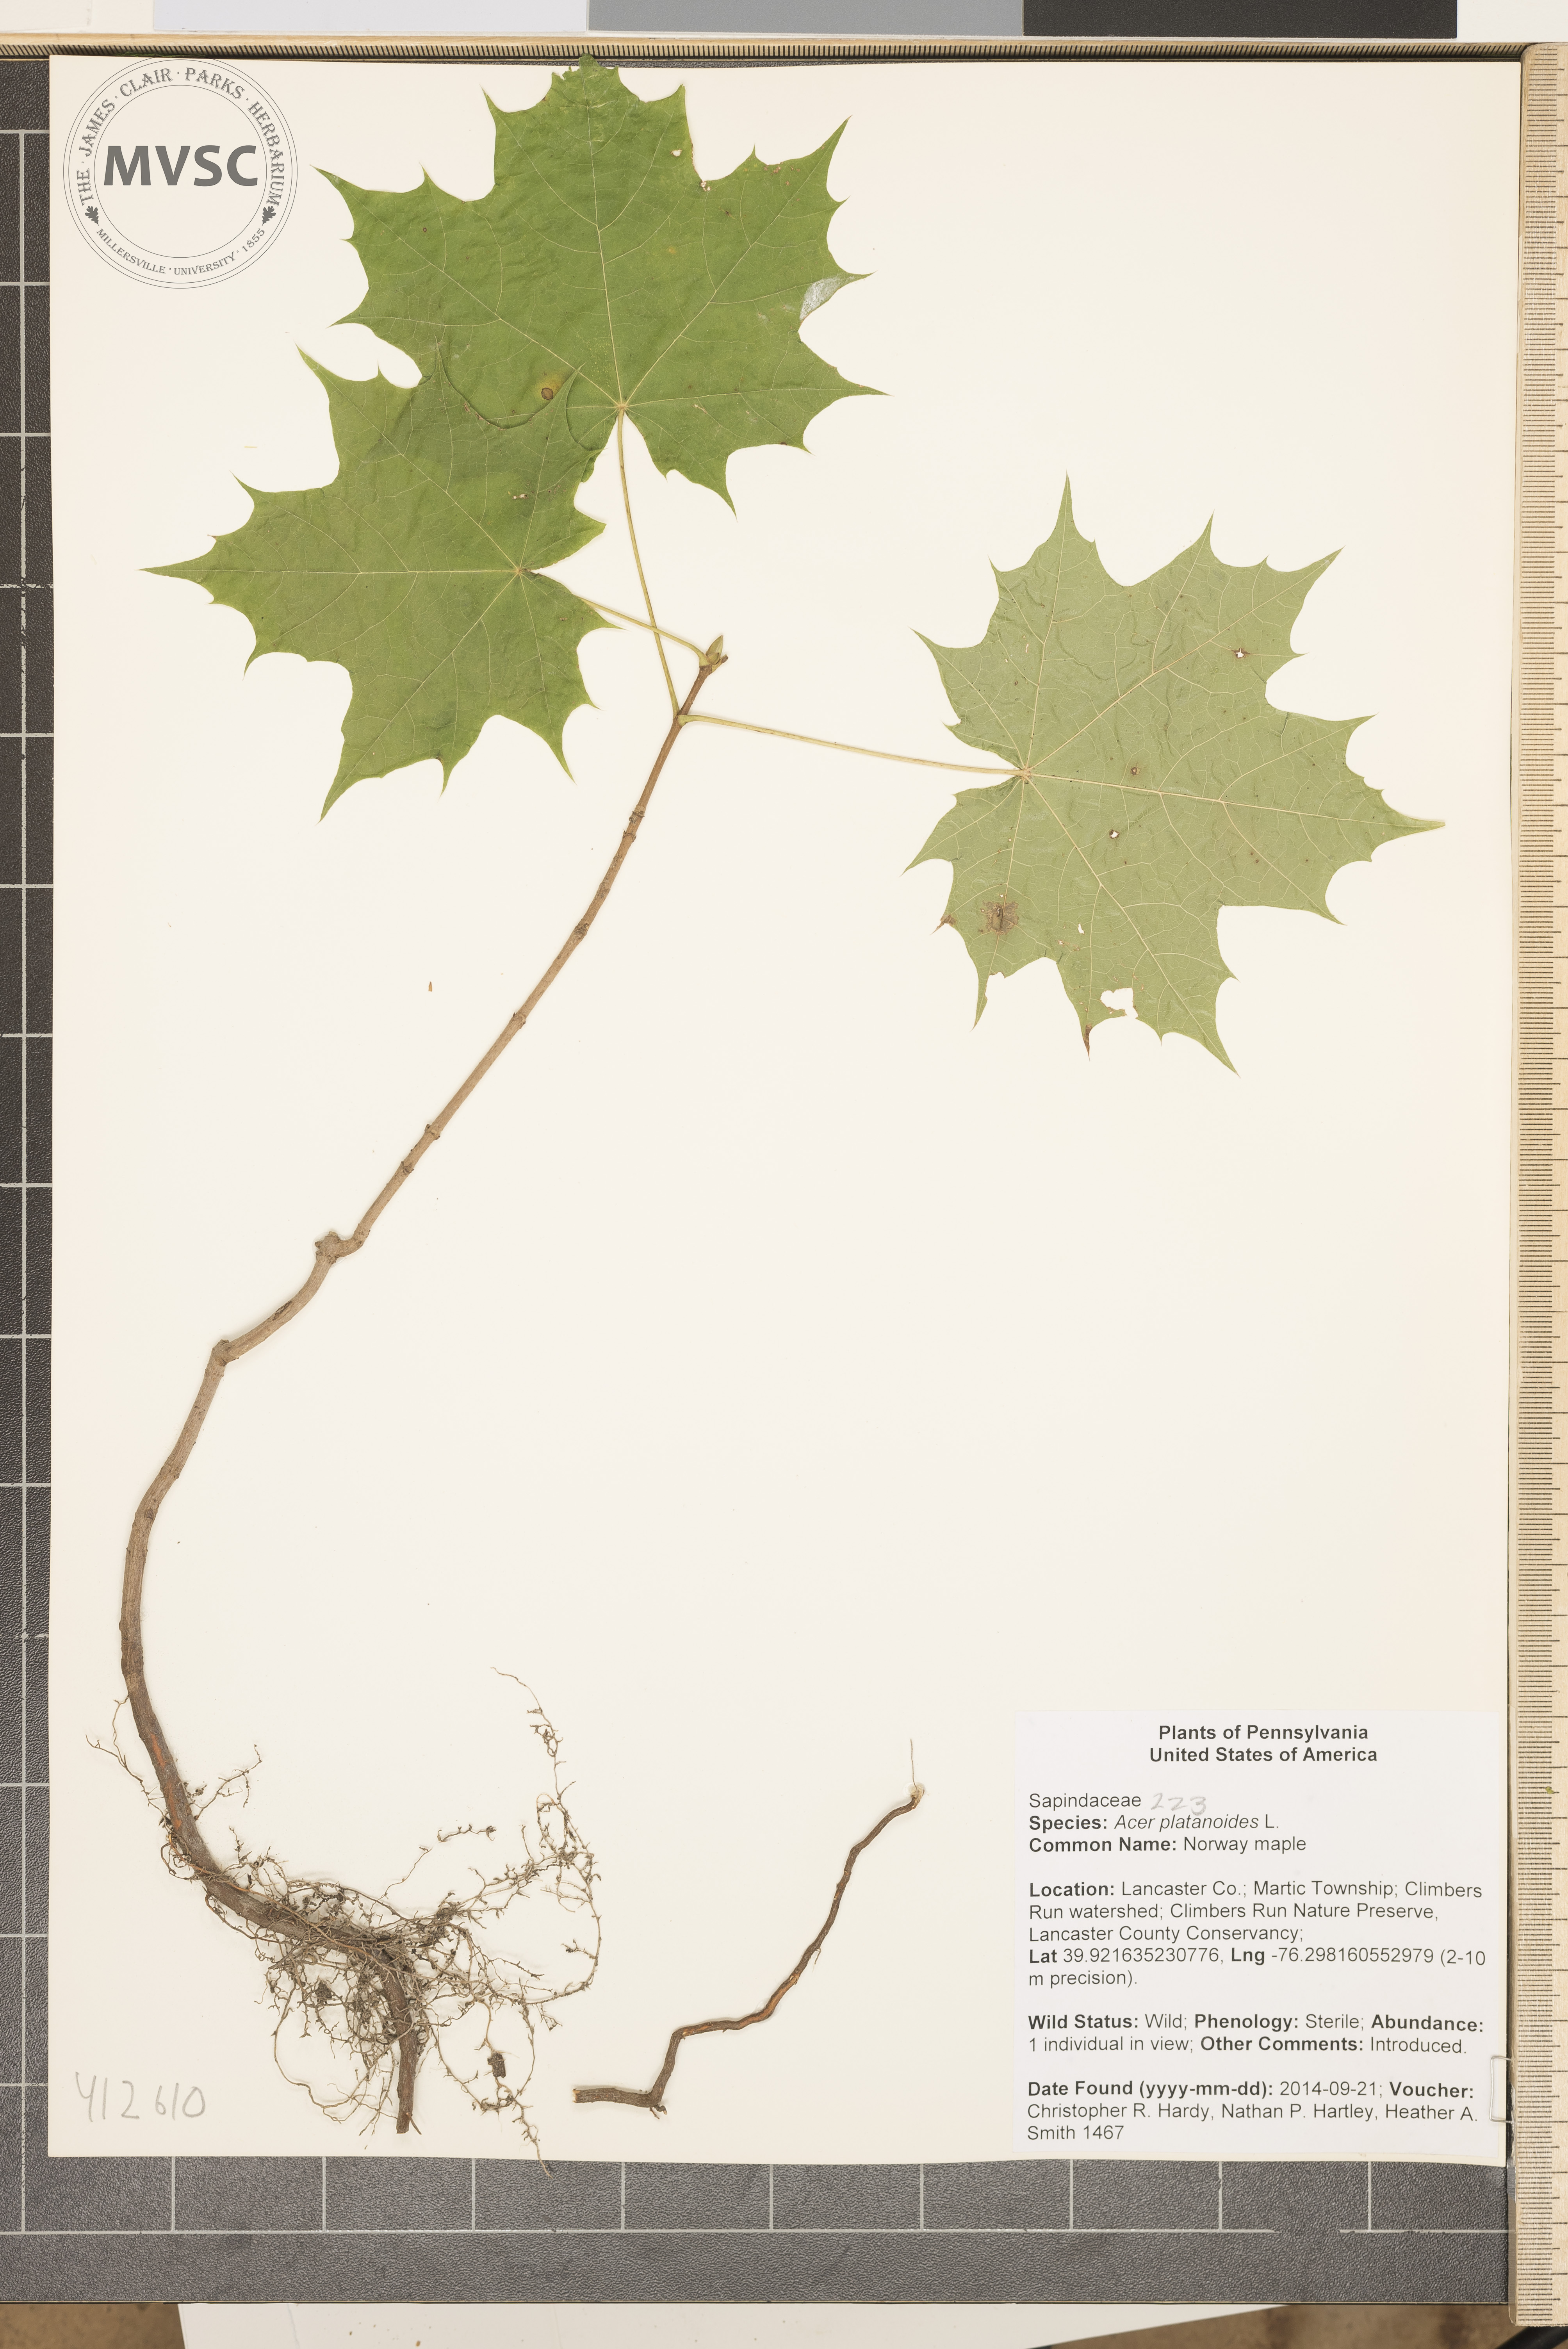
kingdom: Plantae
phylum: Tracheophyta
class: Magnoliopsida
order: Sapindales
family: Sapindaceae
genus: Acer
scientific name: Acer platanoides
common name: Norway maple
